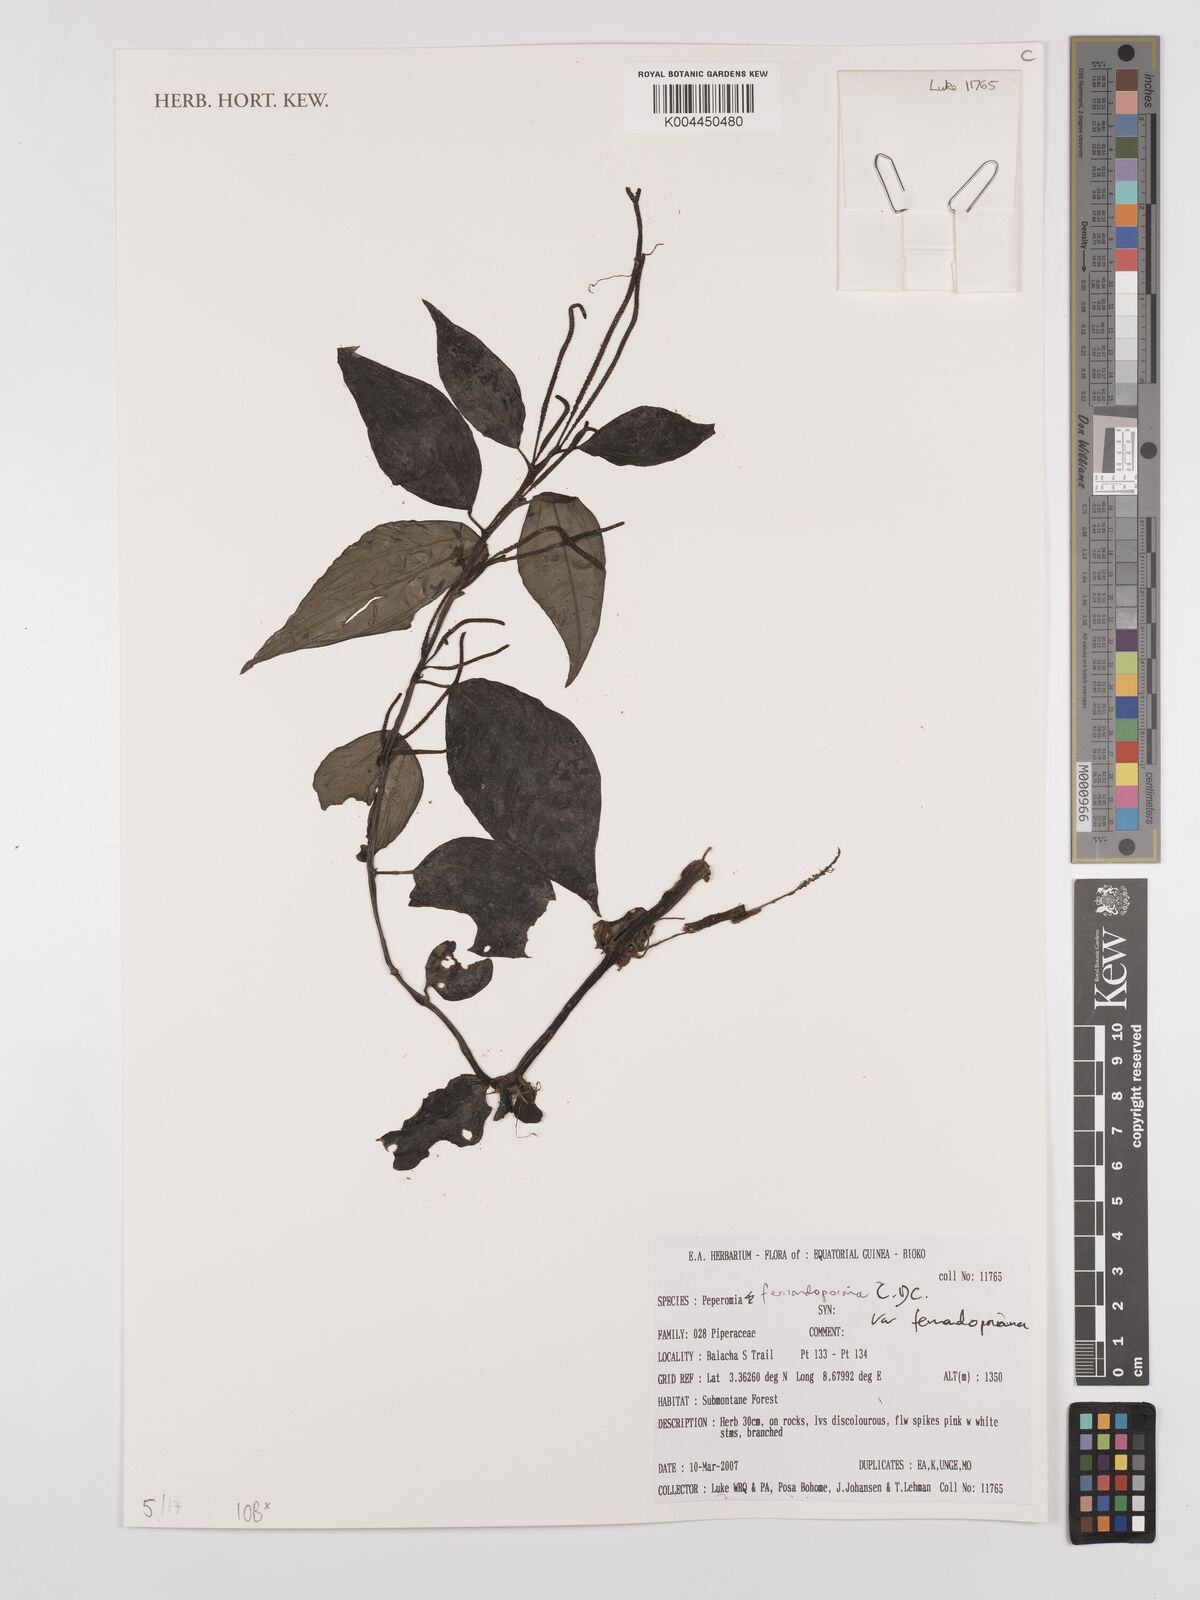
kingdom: Plantae
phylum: Tracheophyta
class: Magnoliopsida
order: Piperales
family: Piperaceae
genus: Peperomia
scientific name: Peperomia fernandopoiana
